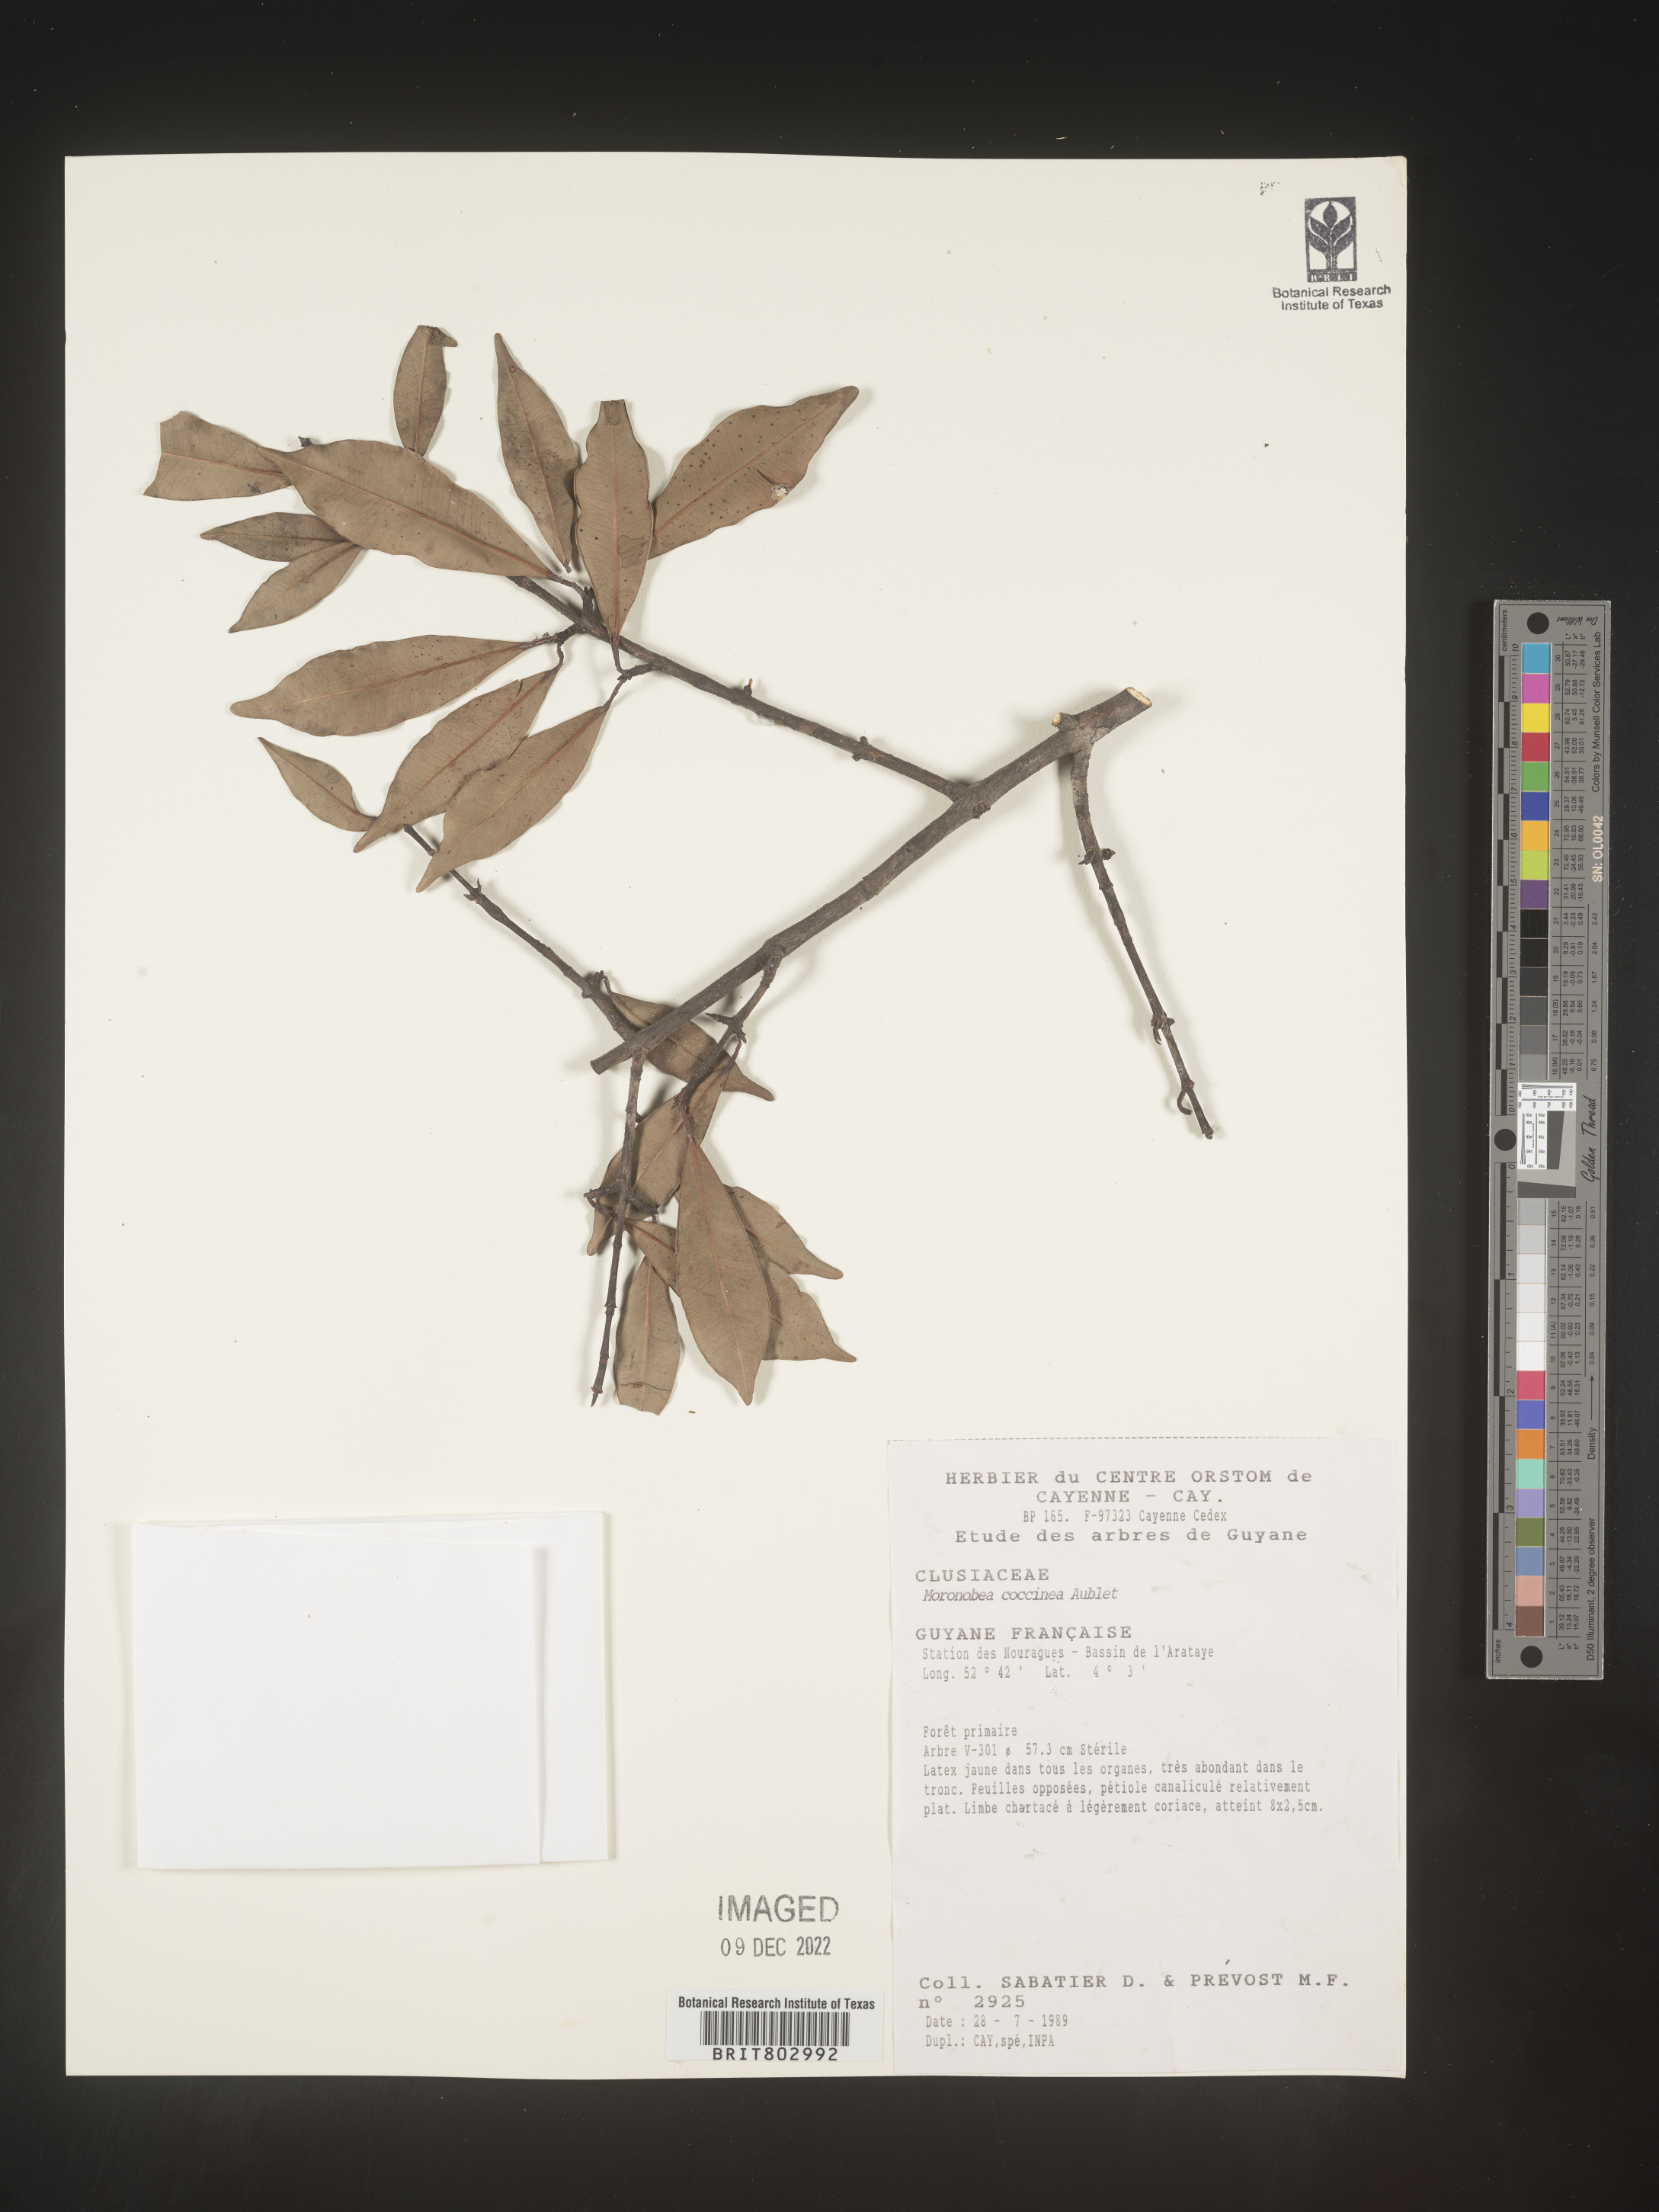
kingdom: Plantae
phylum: Tracheophyta
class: Magnoliopsida
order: Malpighiales
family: Clusiaceae
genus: Moronobea
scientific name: Moronobea
